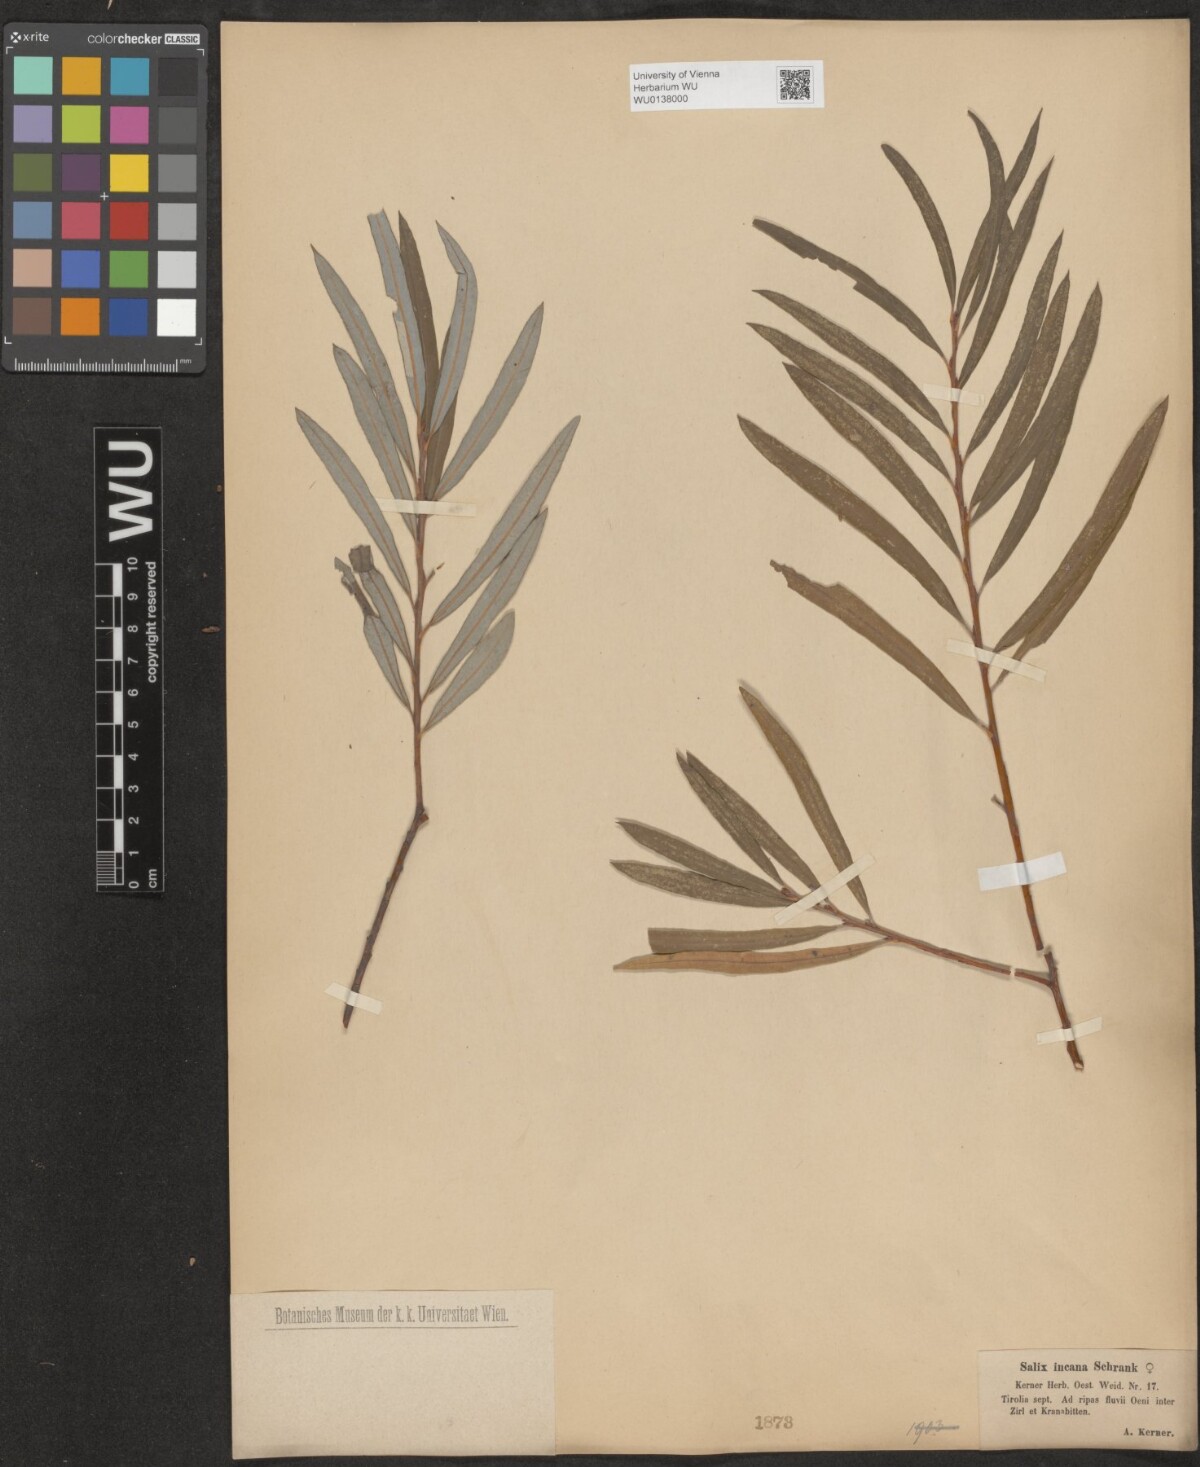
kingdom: Plantae
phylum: Tracheophyta
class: Magnoliopsida
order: Malpighiales
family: Salicaceae
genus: Salix
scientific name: Salix eleagnos
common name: Elaeagnus willow
